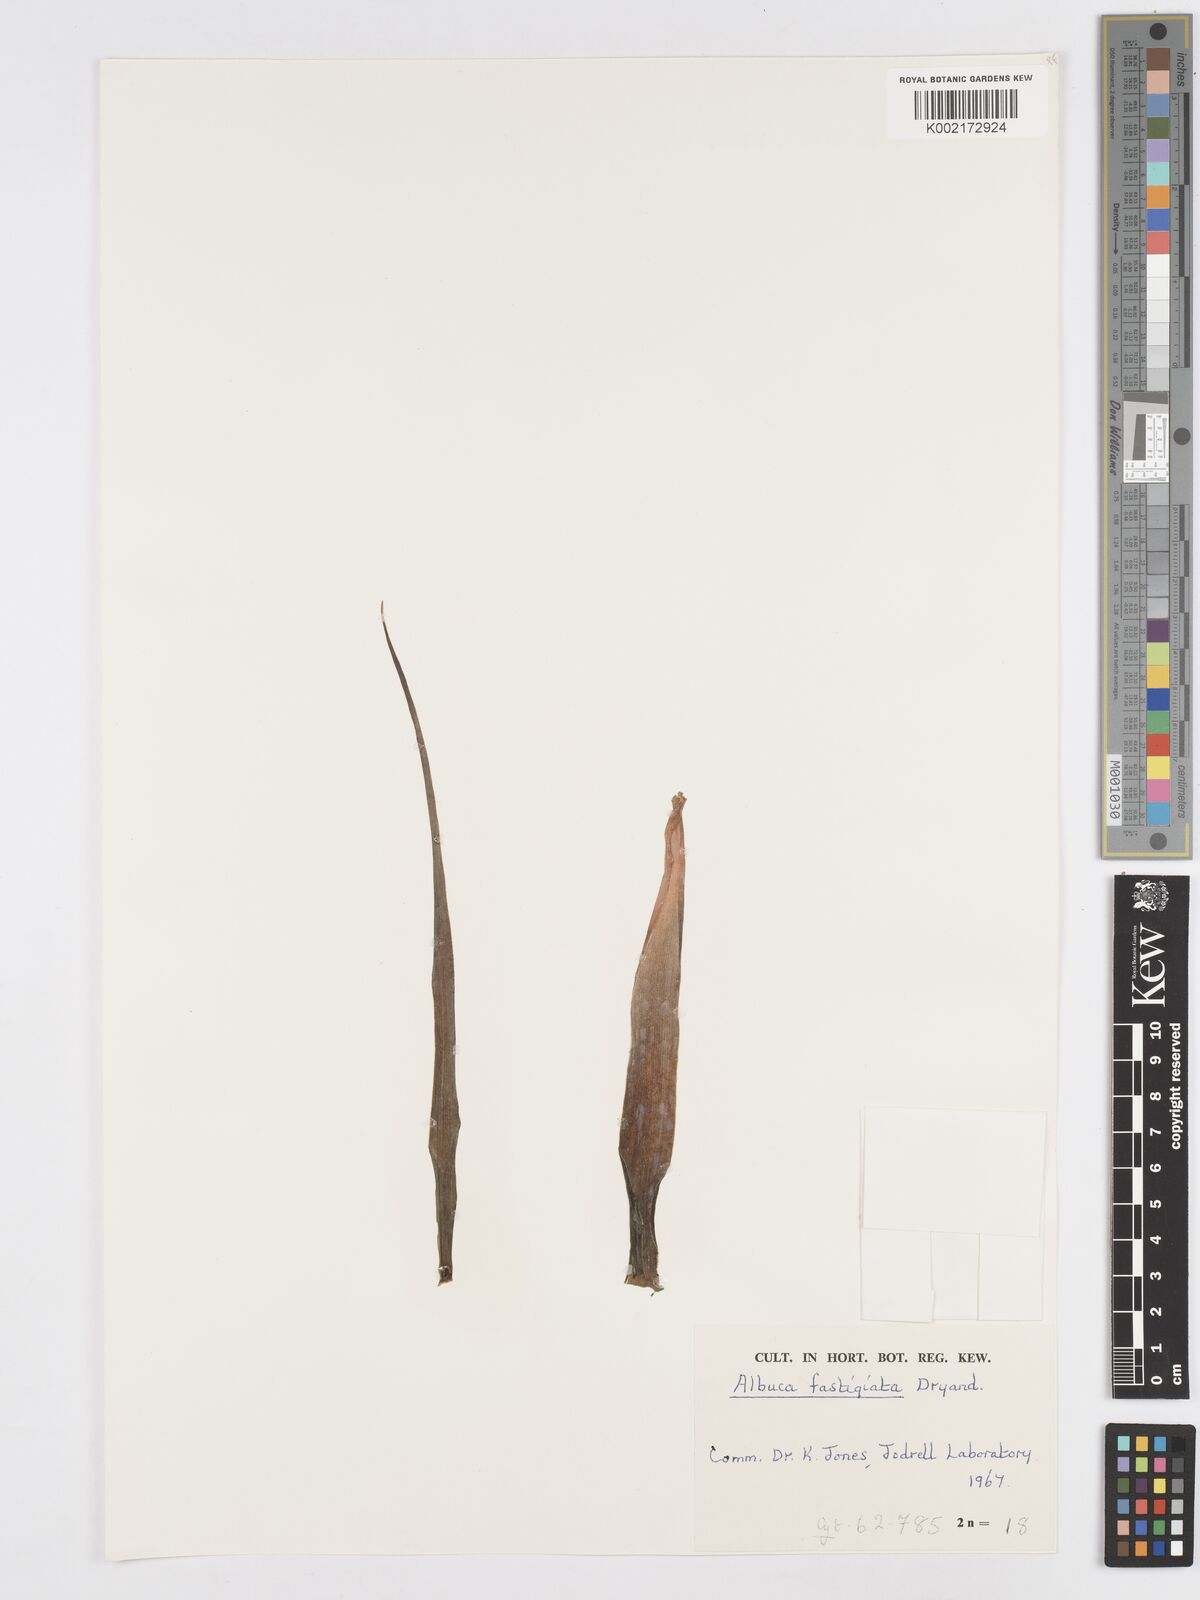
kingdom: Plantae
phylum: Tracheophyta
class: Liliopsida
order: Asparagales
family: Asparagaceae
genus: Albuca
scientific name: Albuca fastigiata
